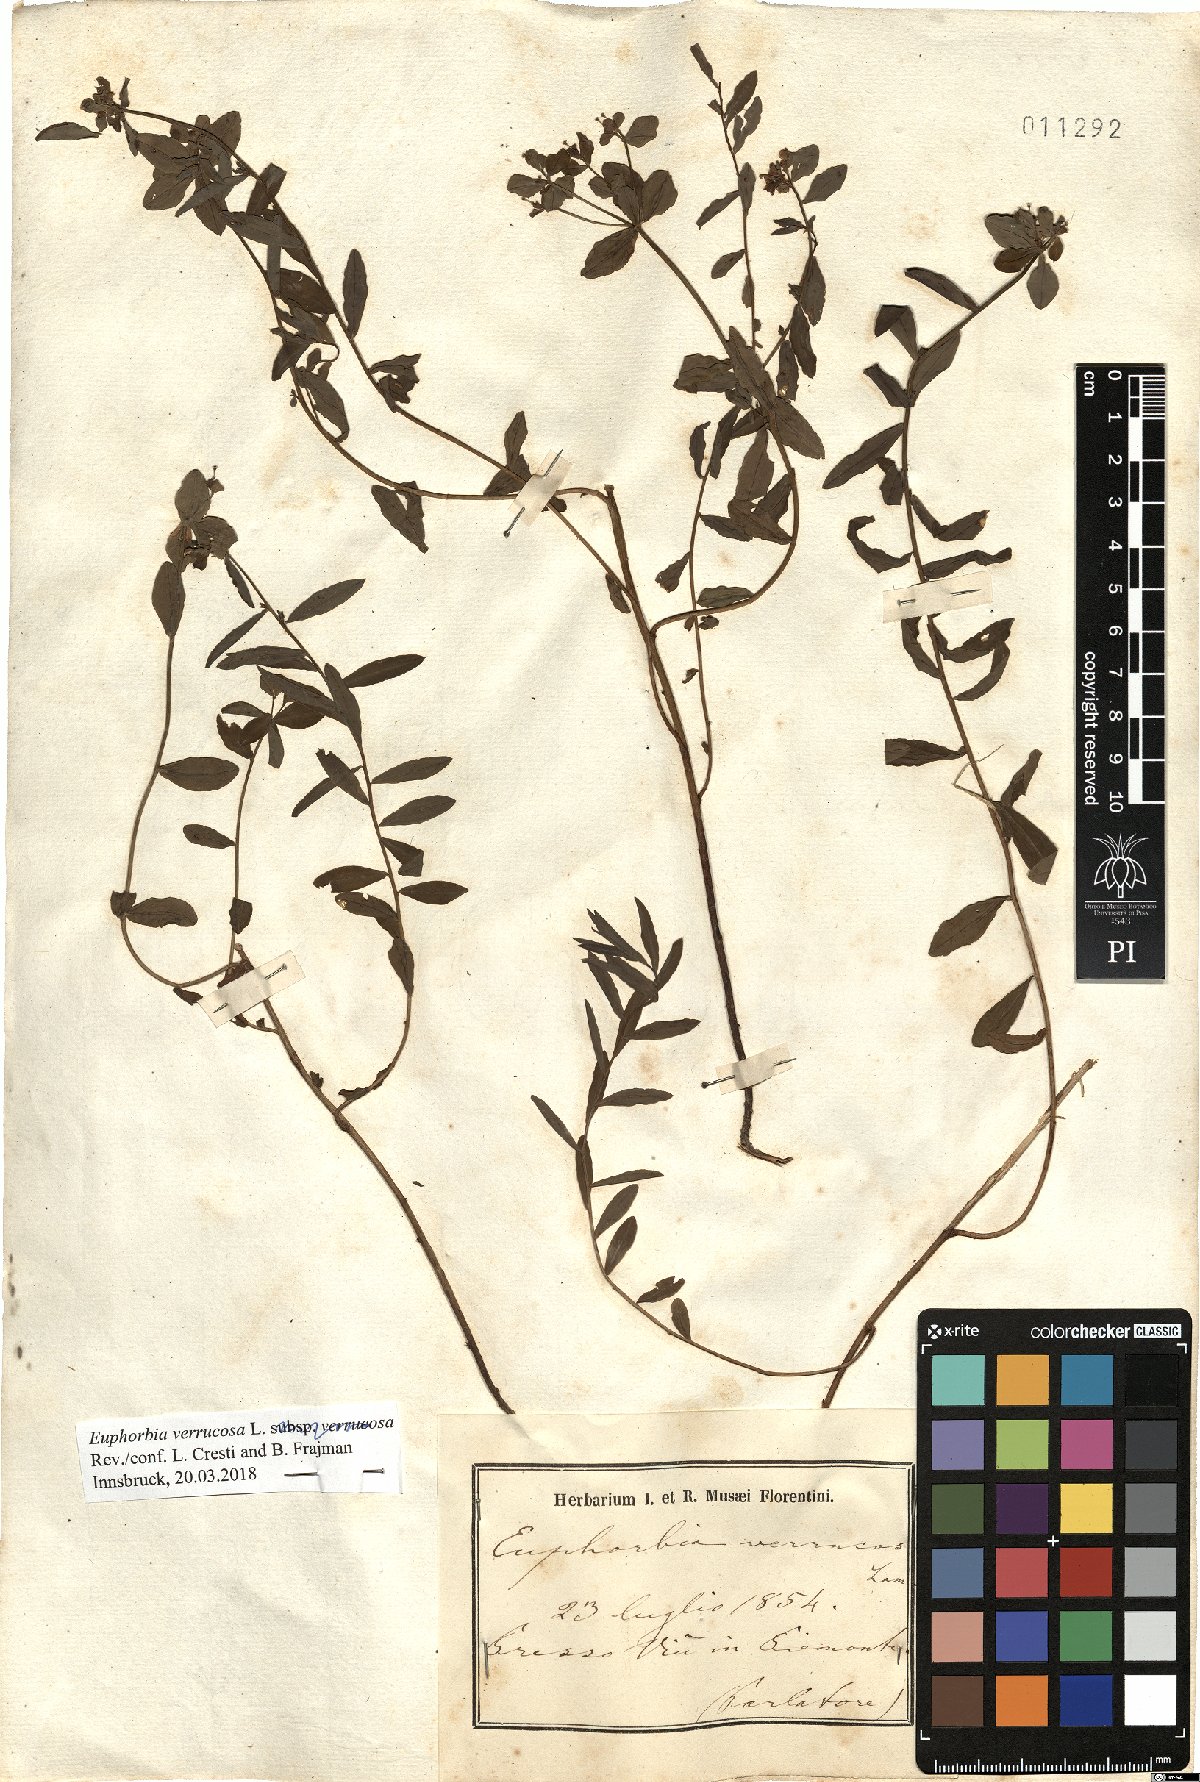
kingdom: Plantae
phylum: Tracheophyta
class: Magnoliopsida
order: Malpighiales
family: Euphorbiaceae
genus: Euphorbia
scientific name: Euphorbia verrucosa
